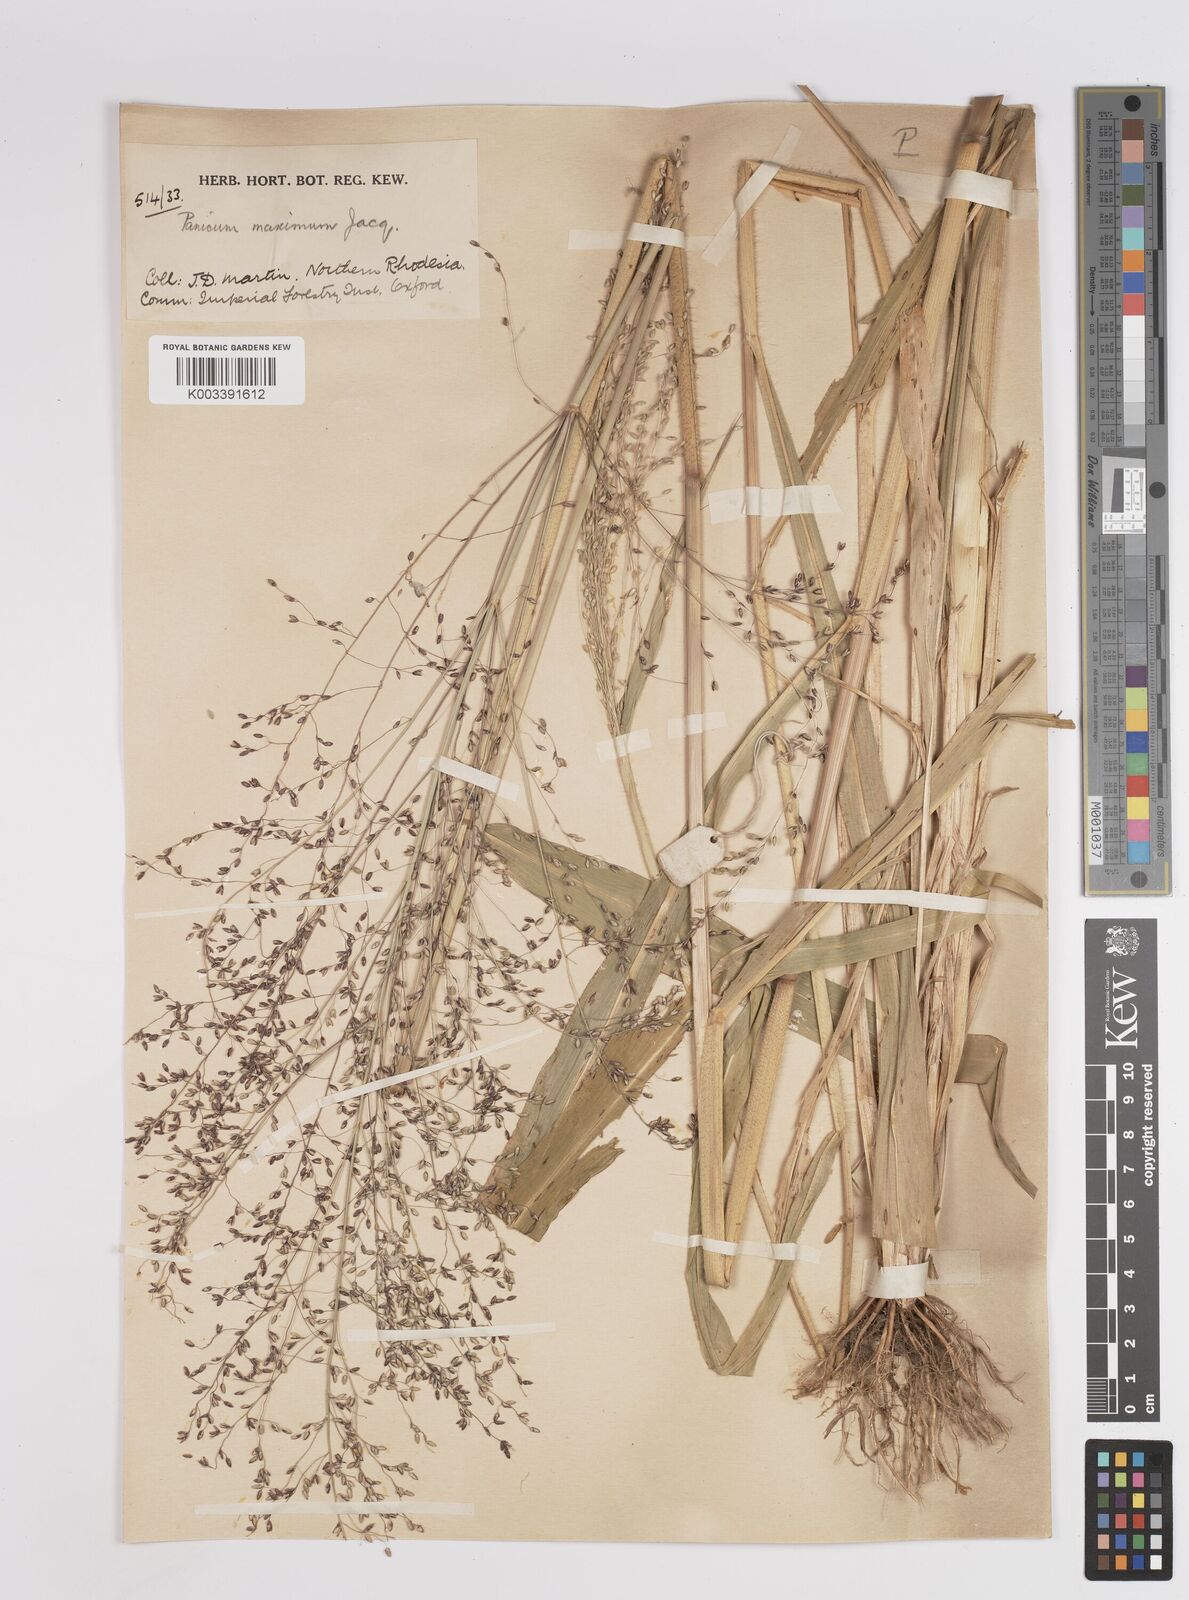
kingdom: Plantae
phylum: Tracheophyta
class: Liliopsida
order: Poales
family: Poaceae
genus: Megathyrsus
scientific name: Megathyrsus maximus
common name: Guineagrass
